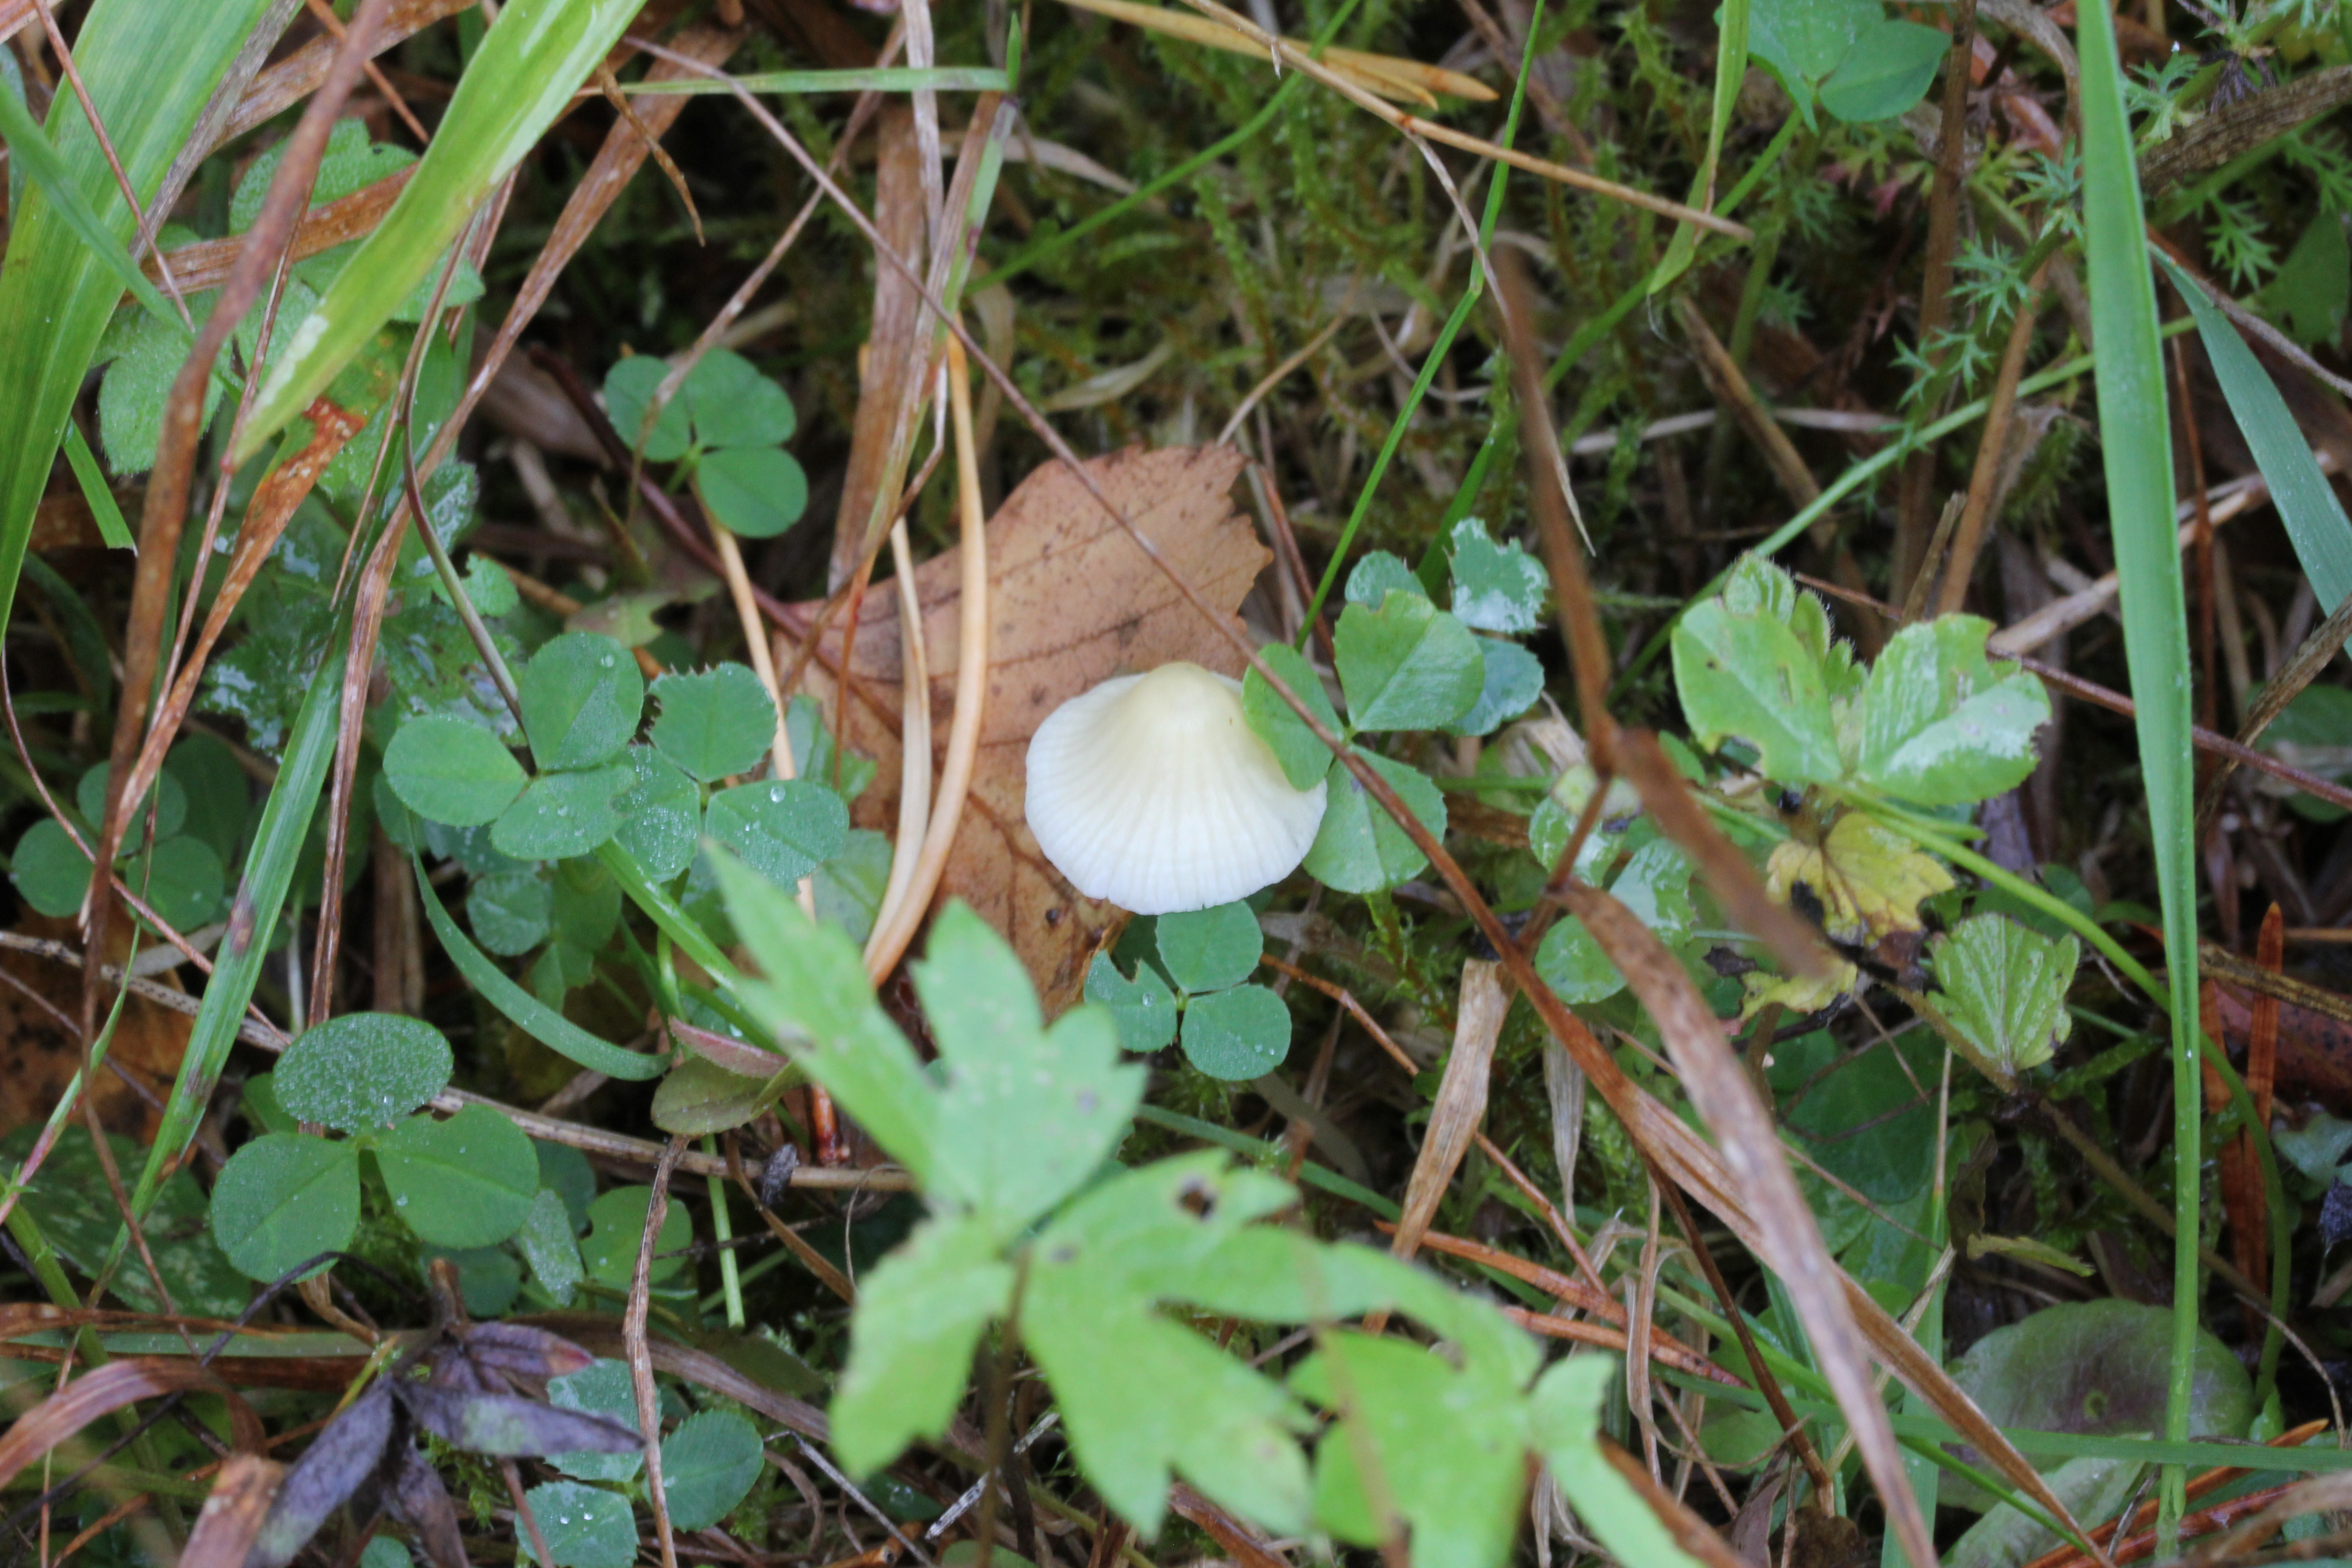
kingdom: Fungi
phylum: Basidiomycota
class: Agaricomycetes
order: Agaricales
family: Mycenaceae
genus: Atheniella
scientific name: Atheniella flavoalba
